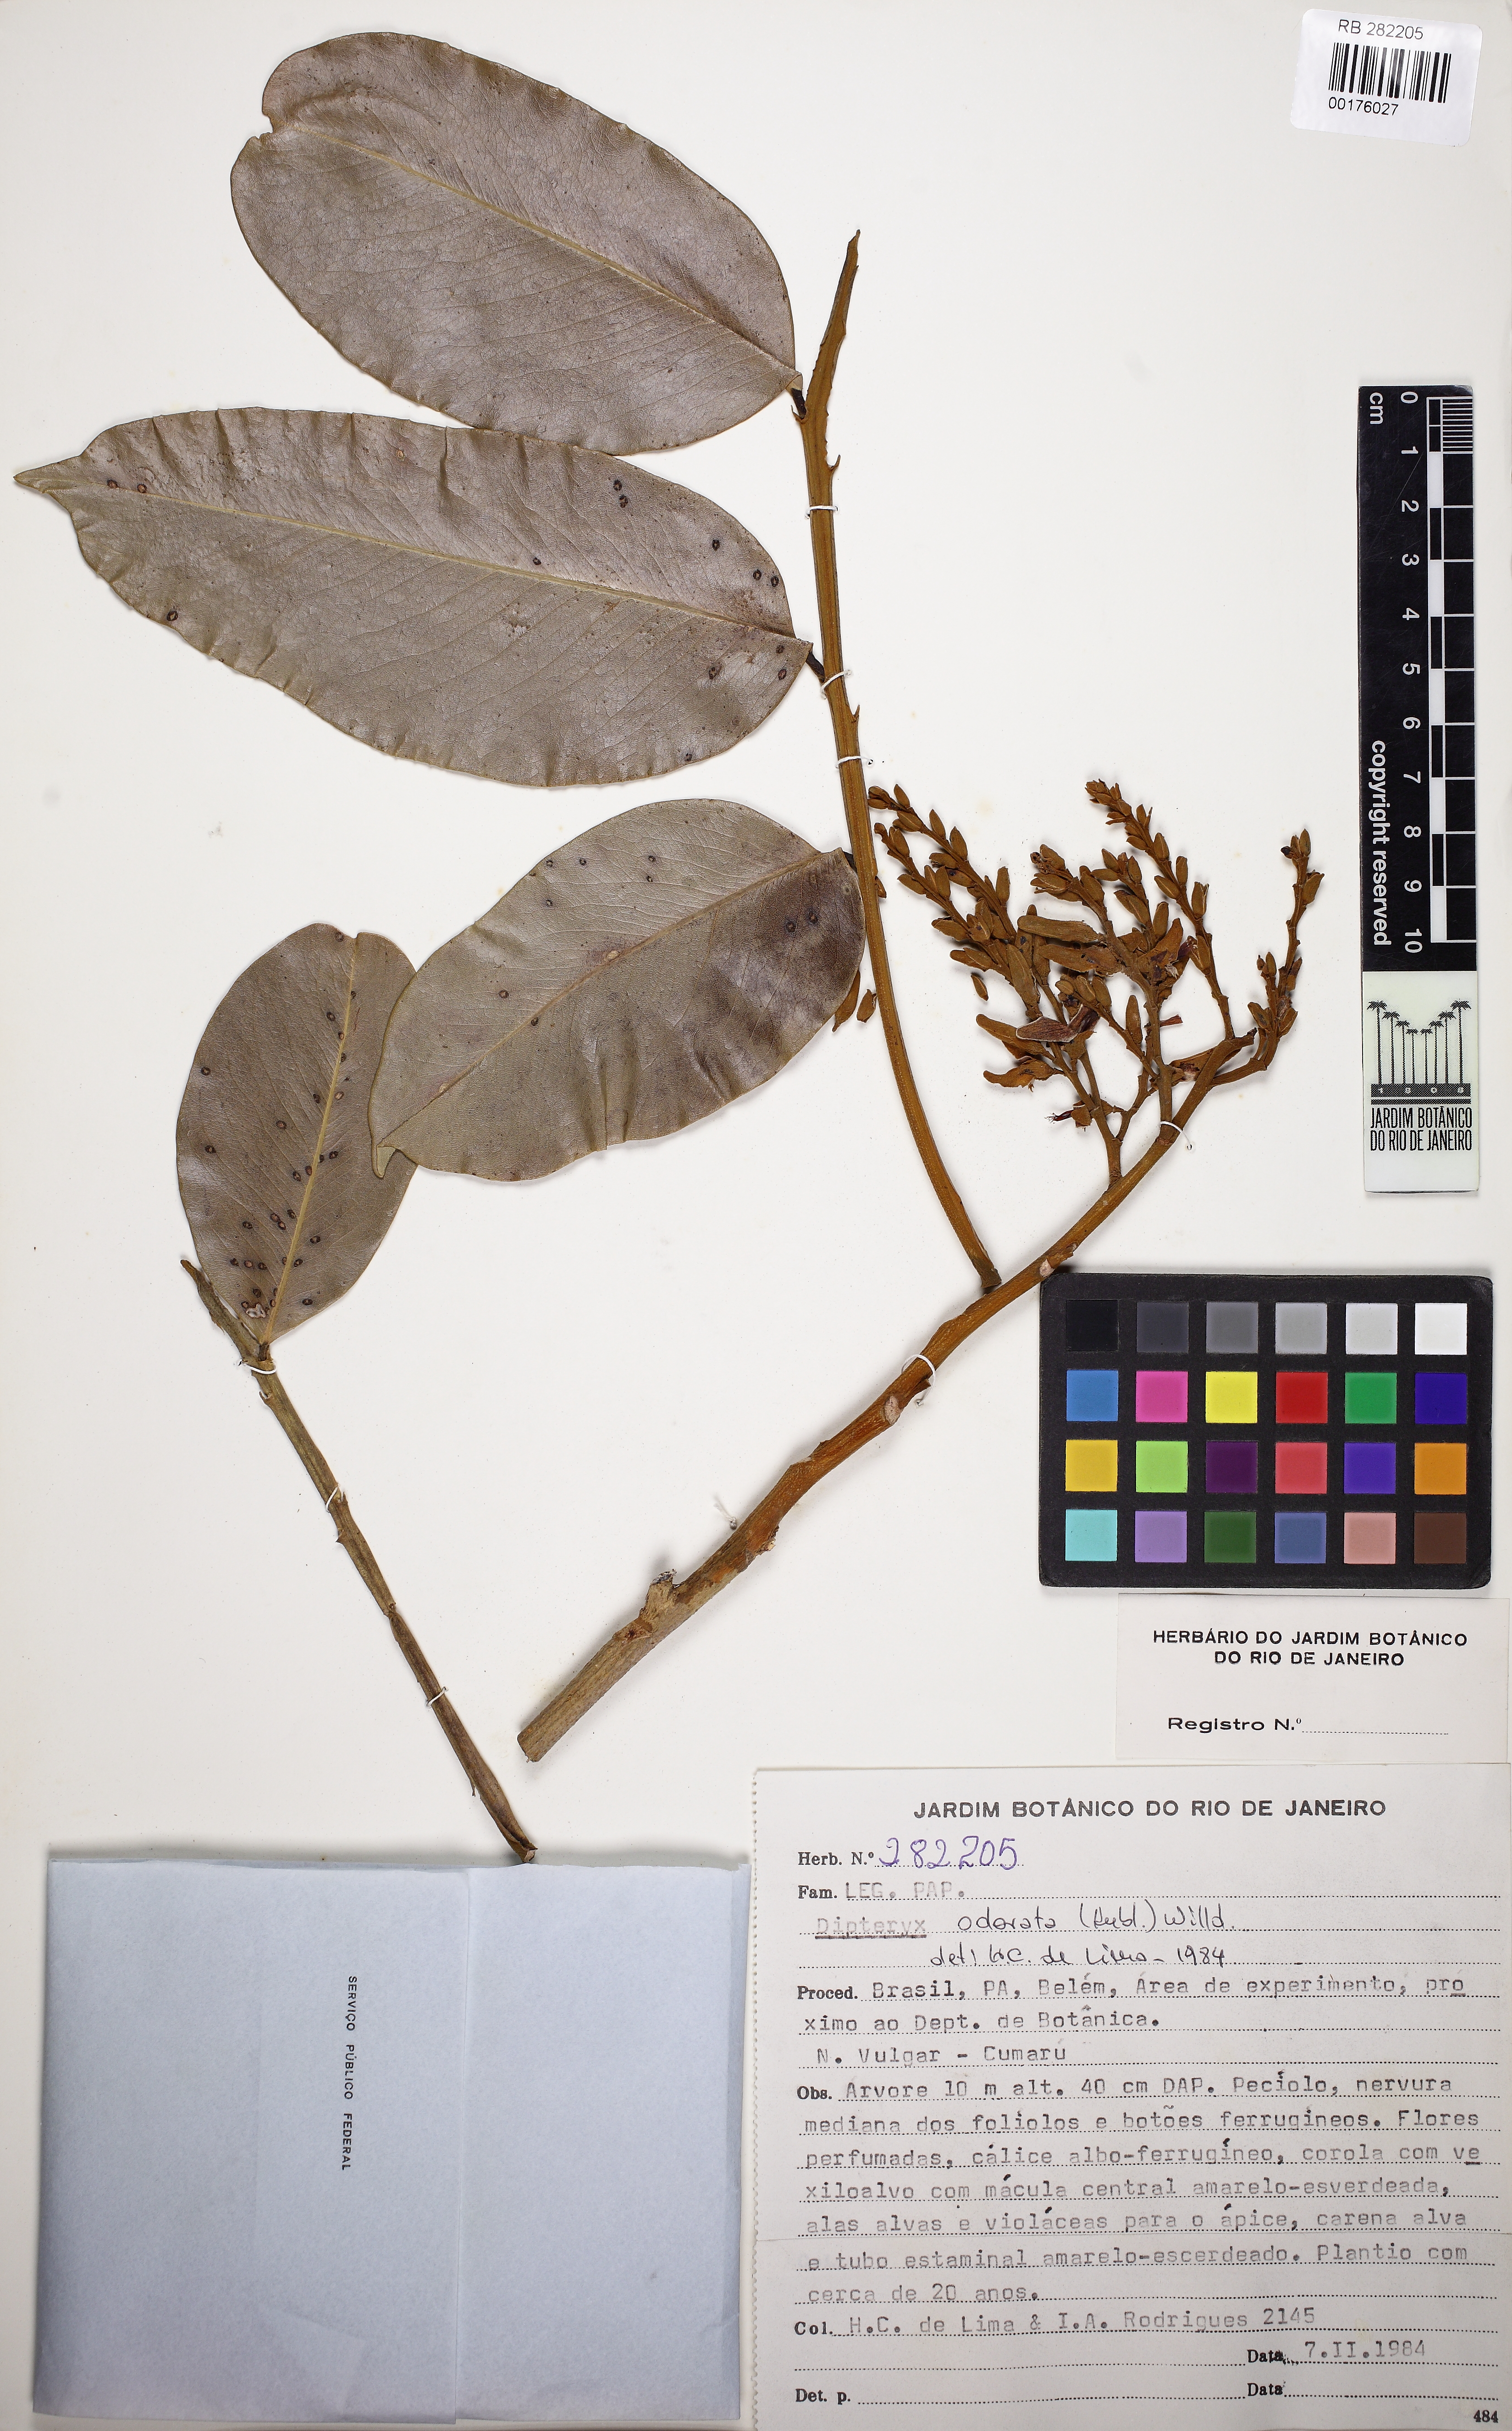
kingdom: Plantae
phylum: Tracheophyta
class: Magnoliopsida
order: Fabales
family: Fabaceae
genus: Dipteryx
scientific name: Dipteryx odorata
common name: Tonka
